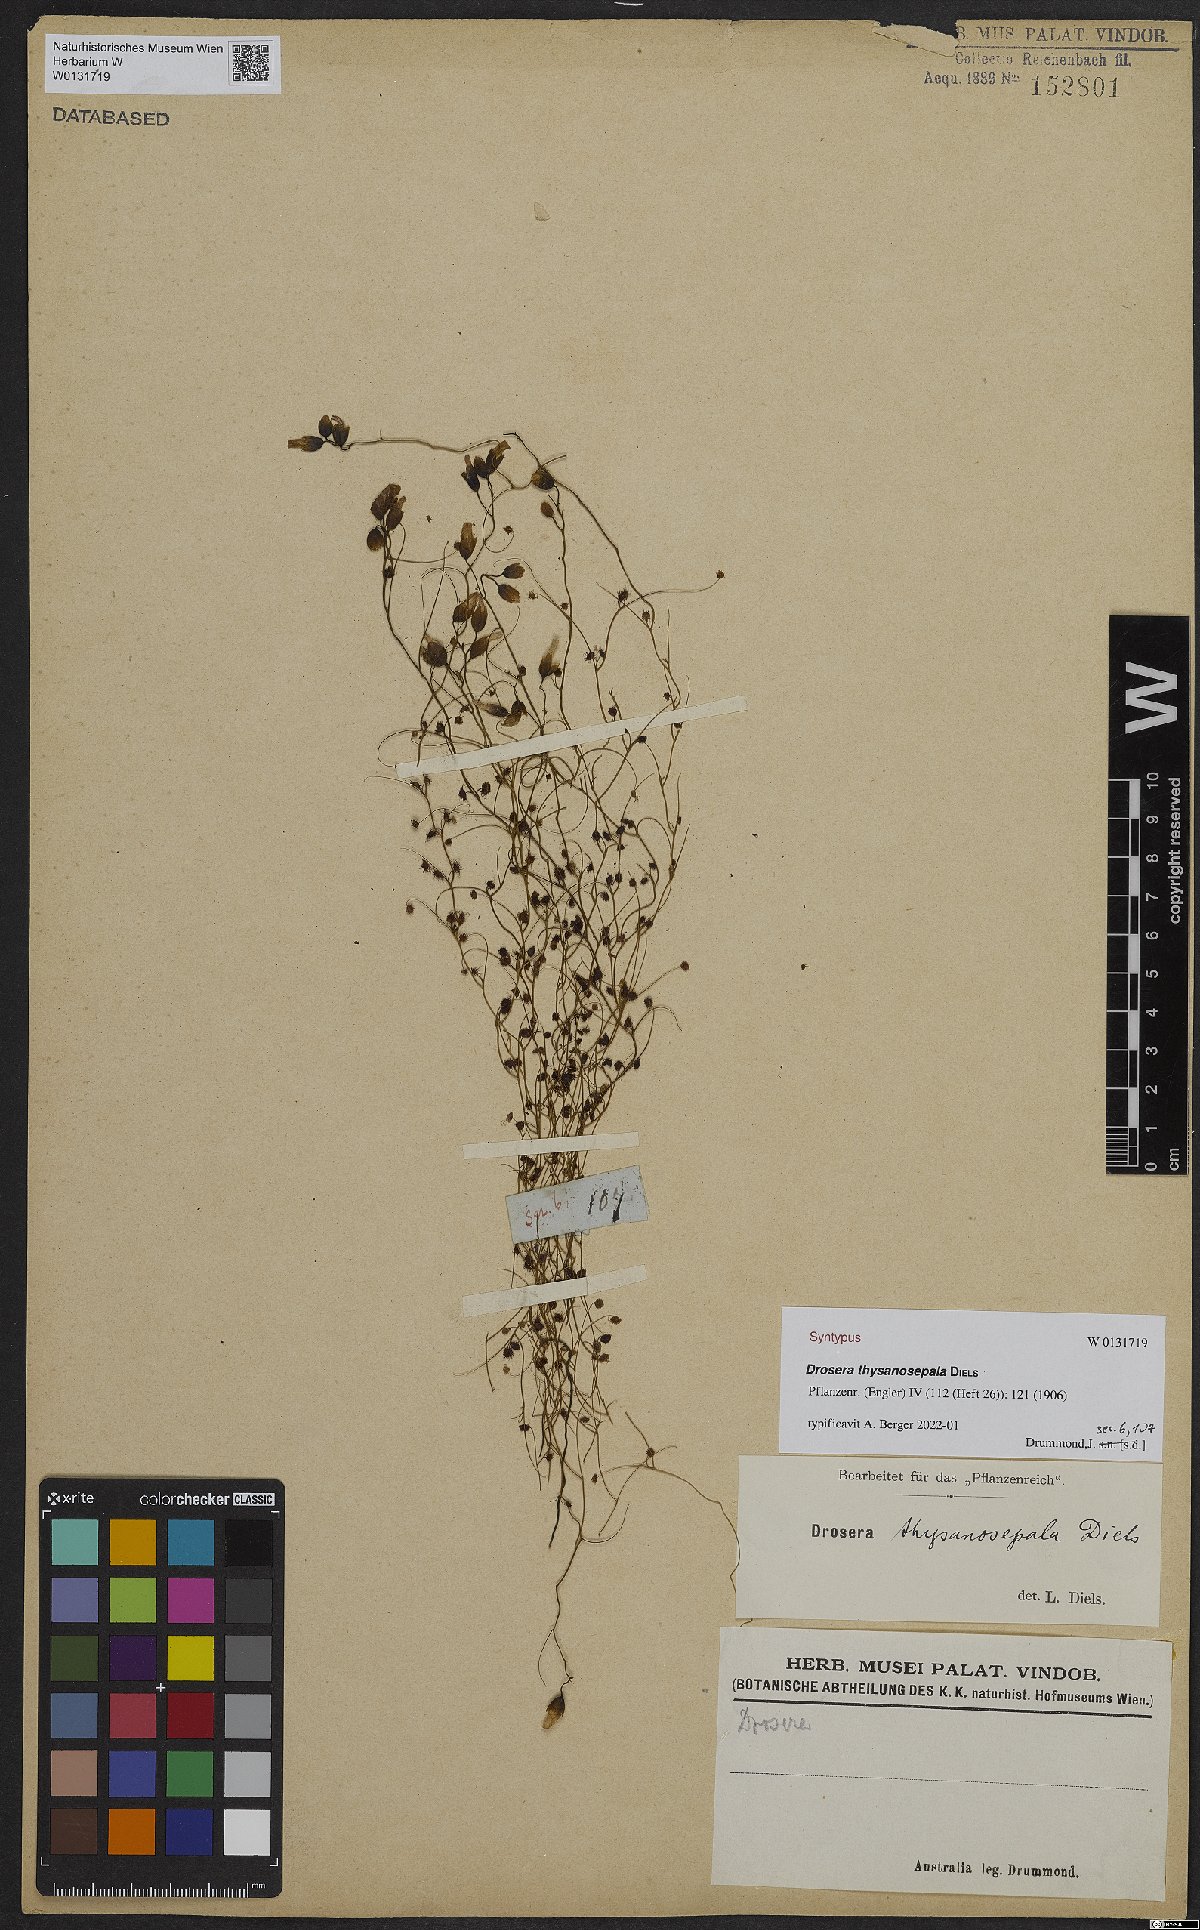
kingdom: Plantae
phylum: Tracheophyta
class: Magnoliopsida
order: Caryophyllales
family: Droseraceae
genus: Drosera
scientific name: Drosera menziesii
